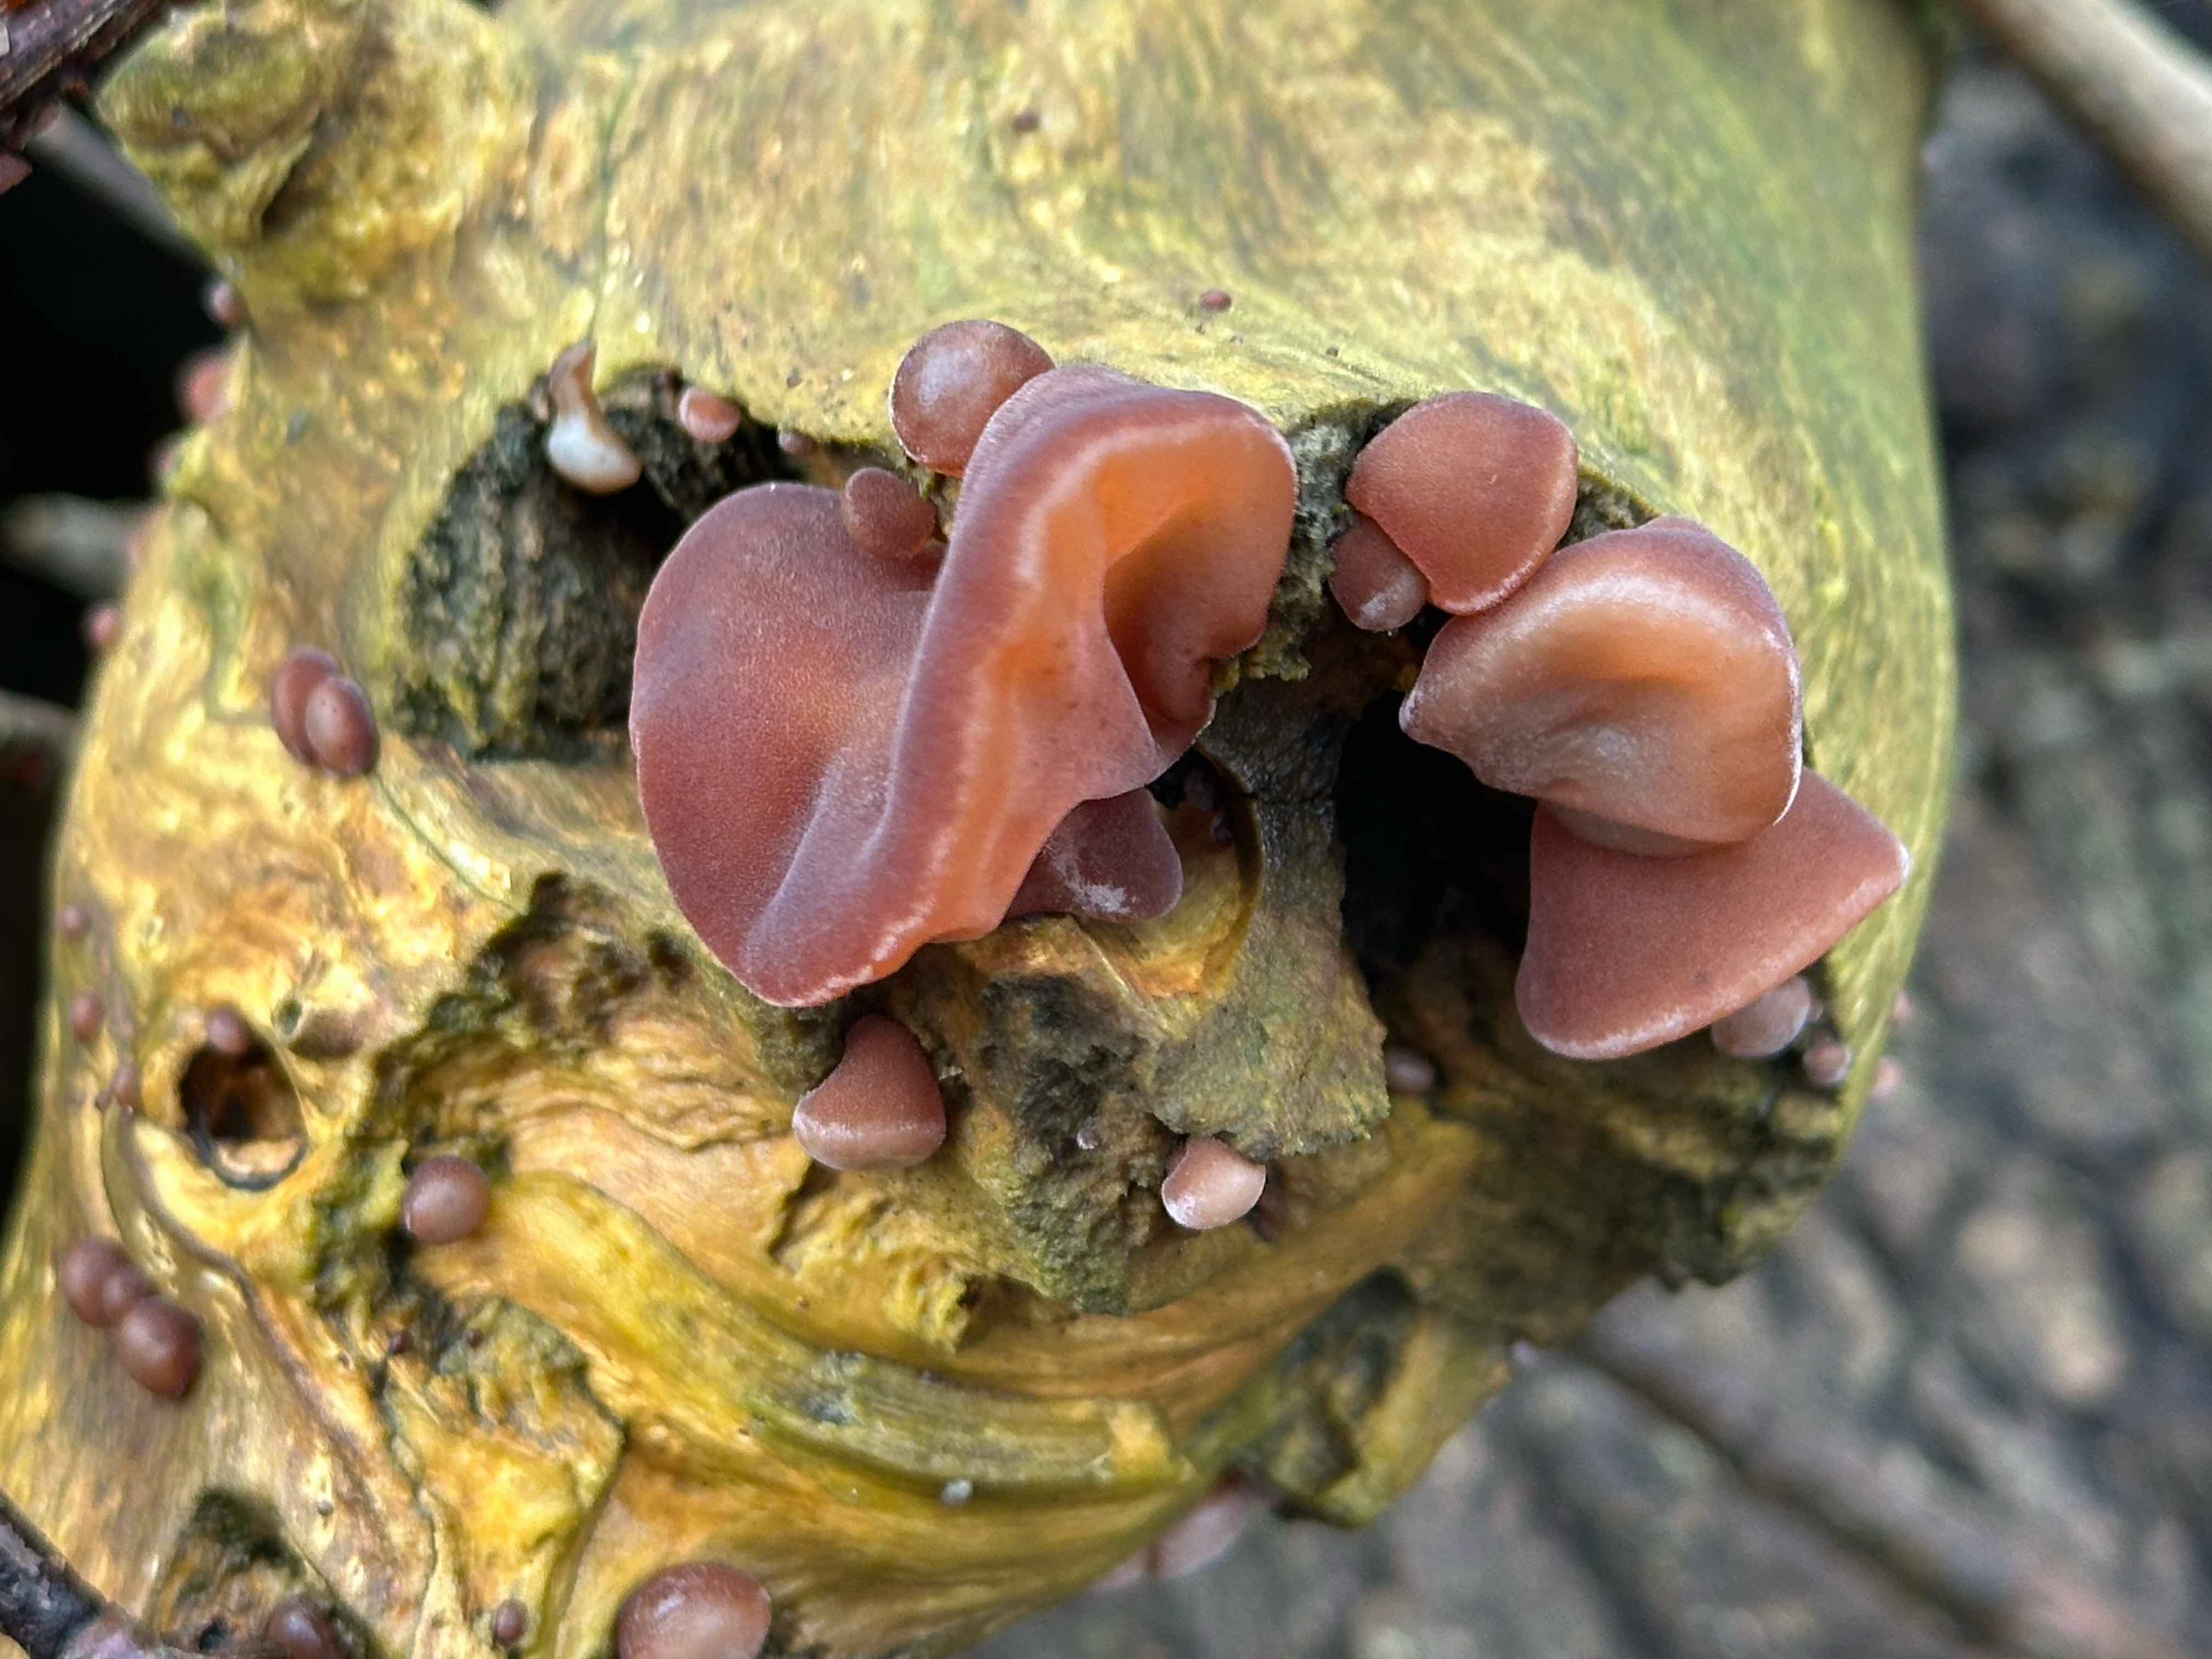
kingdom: Fungi
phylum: Basidiomycota
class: Agaricomycetes
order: Auriculariales
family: Auriculariaceae
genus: Auricularia
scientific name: Auricularia auricula-judae
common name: almindelig judasøre
